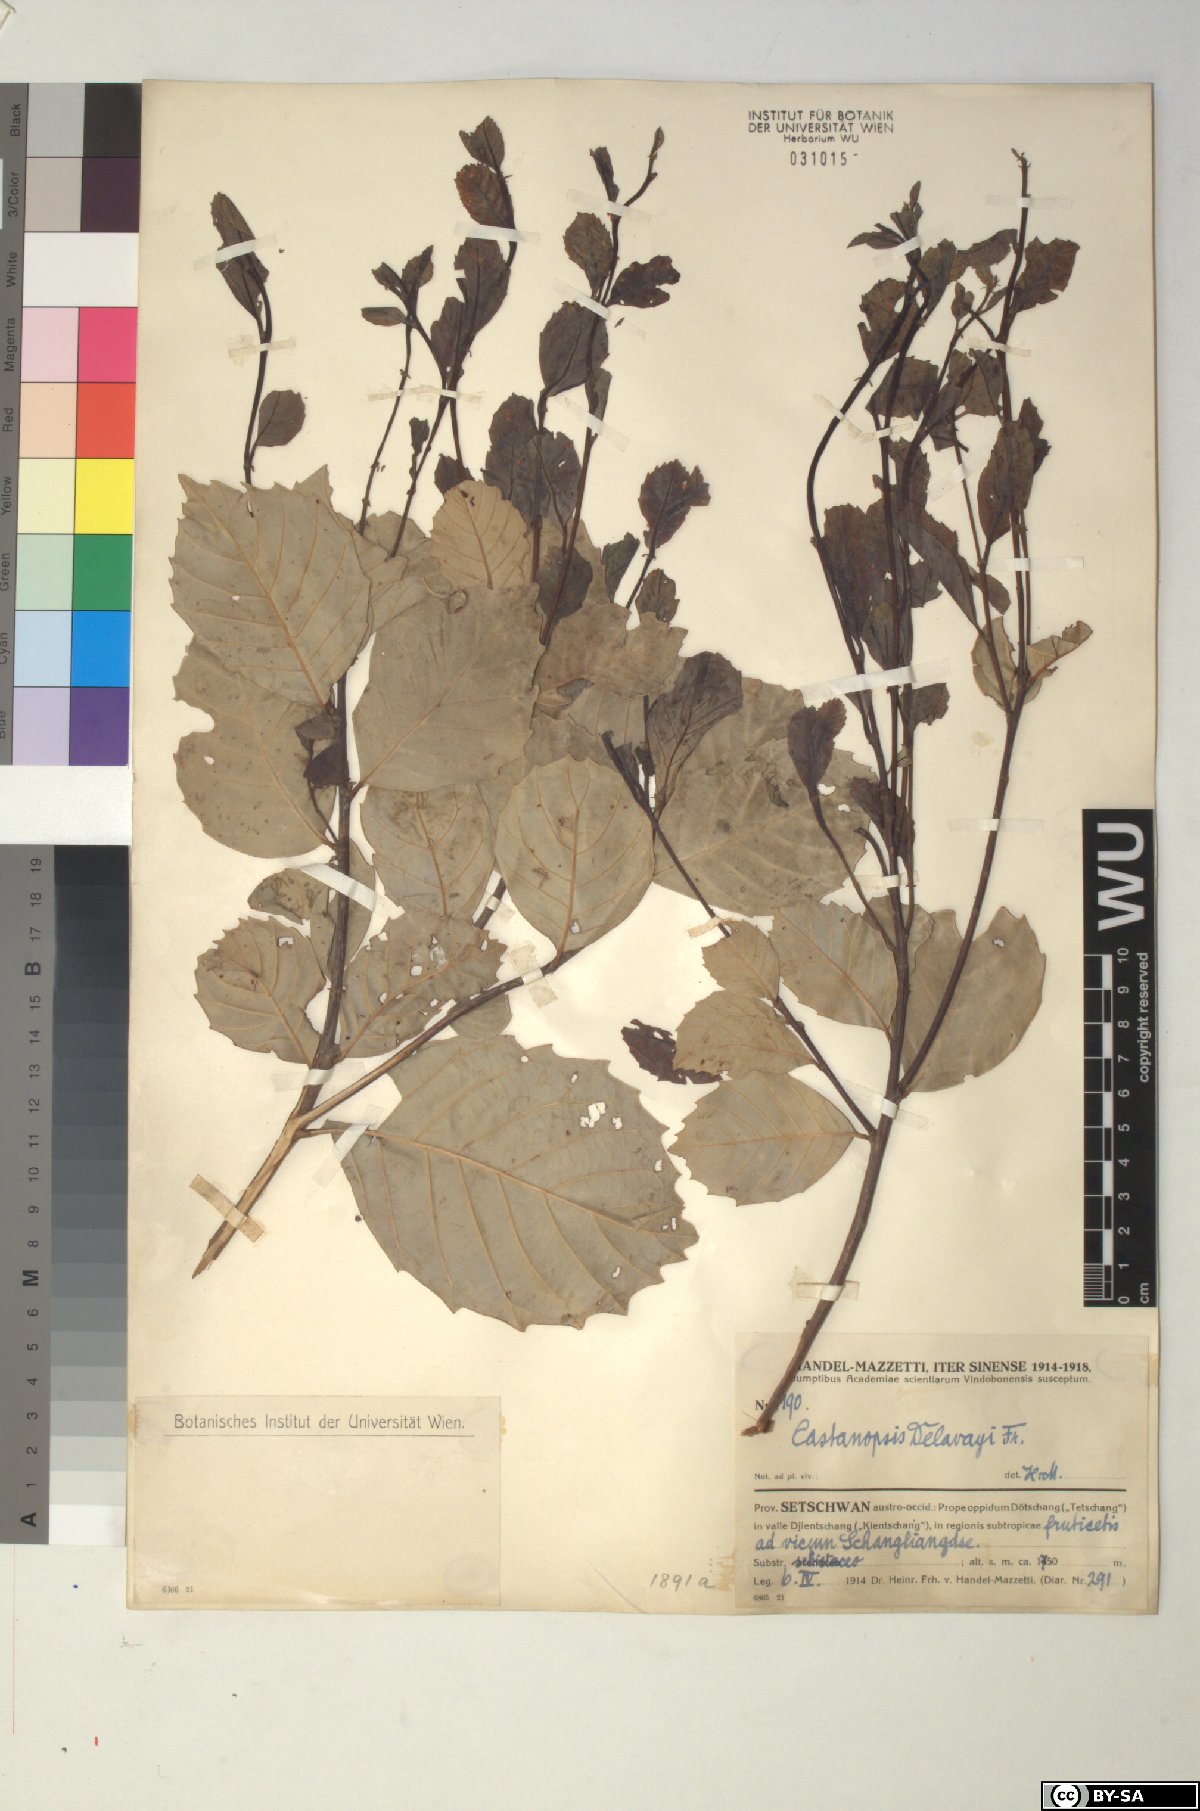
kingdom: Plantae
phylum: Tracheophyta
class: Magnoliopsida
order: Fagales
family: Fagaceae
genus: Castanopsis
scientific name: Castanopsis delavayi
